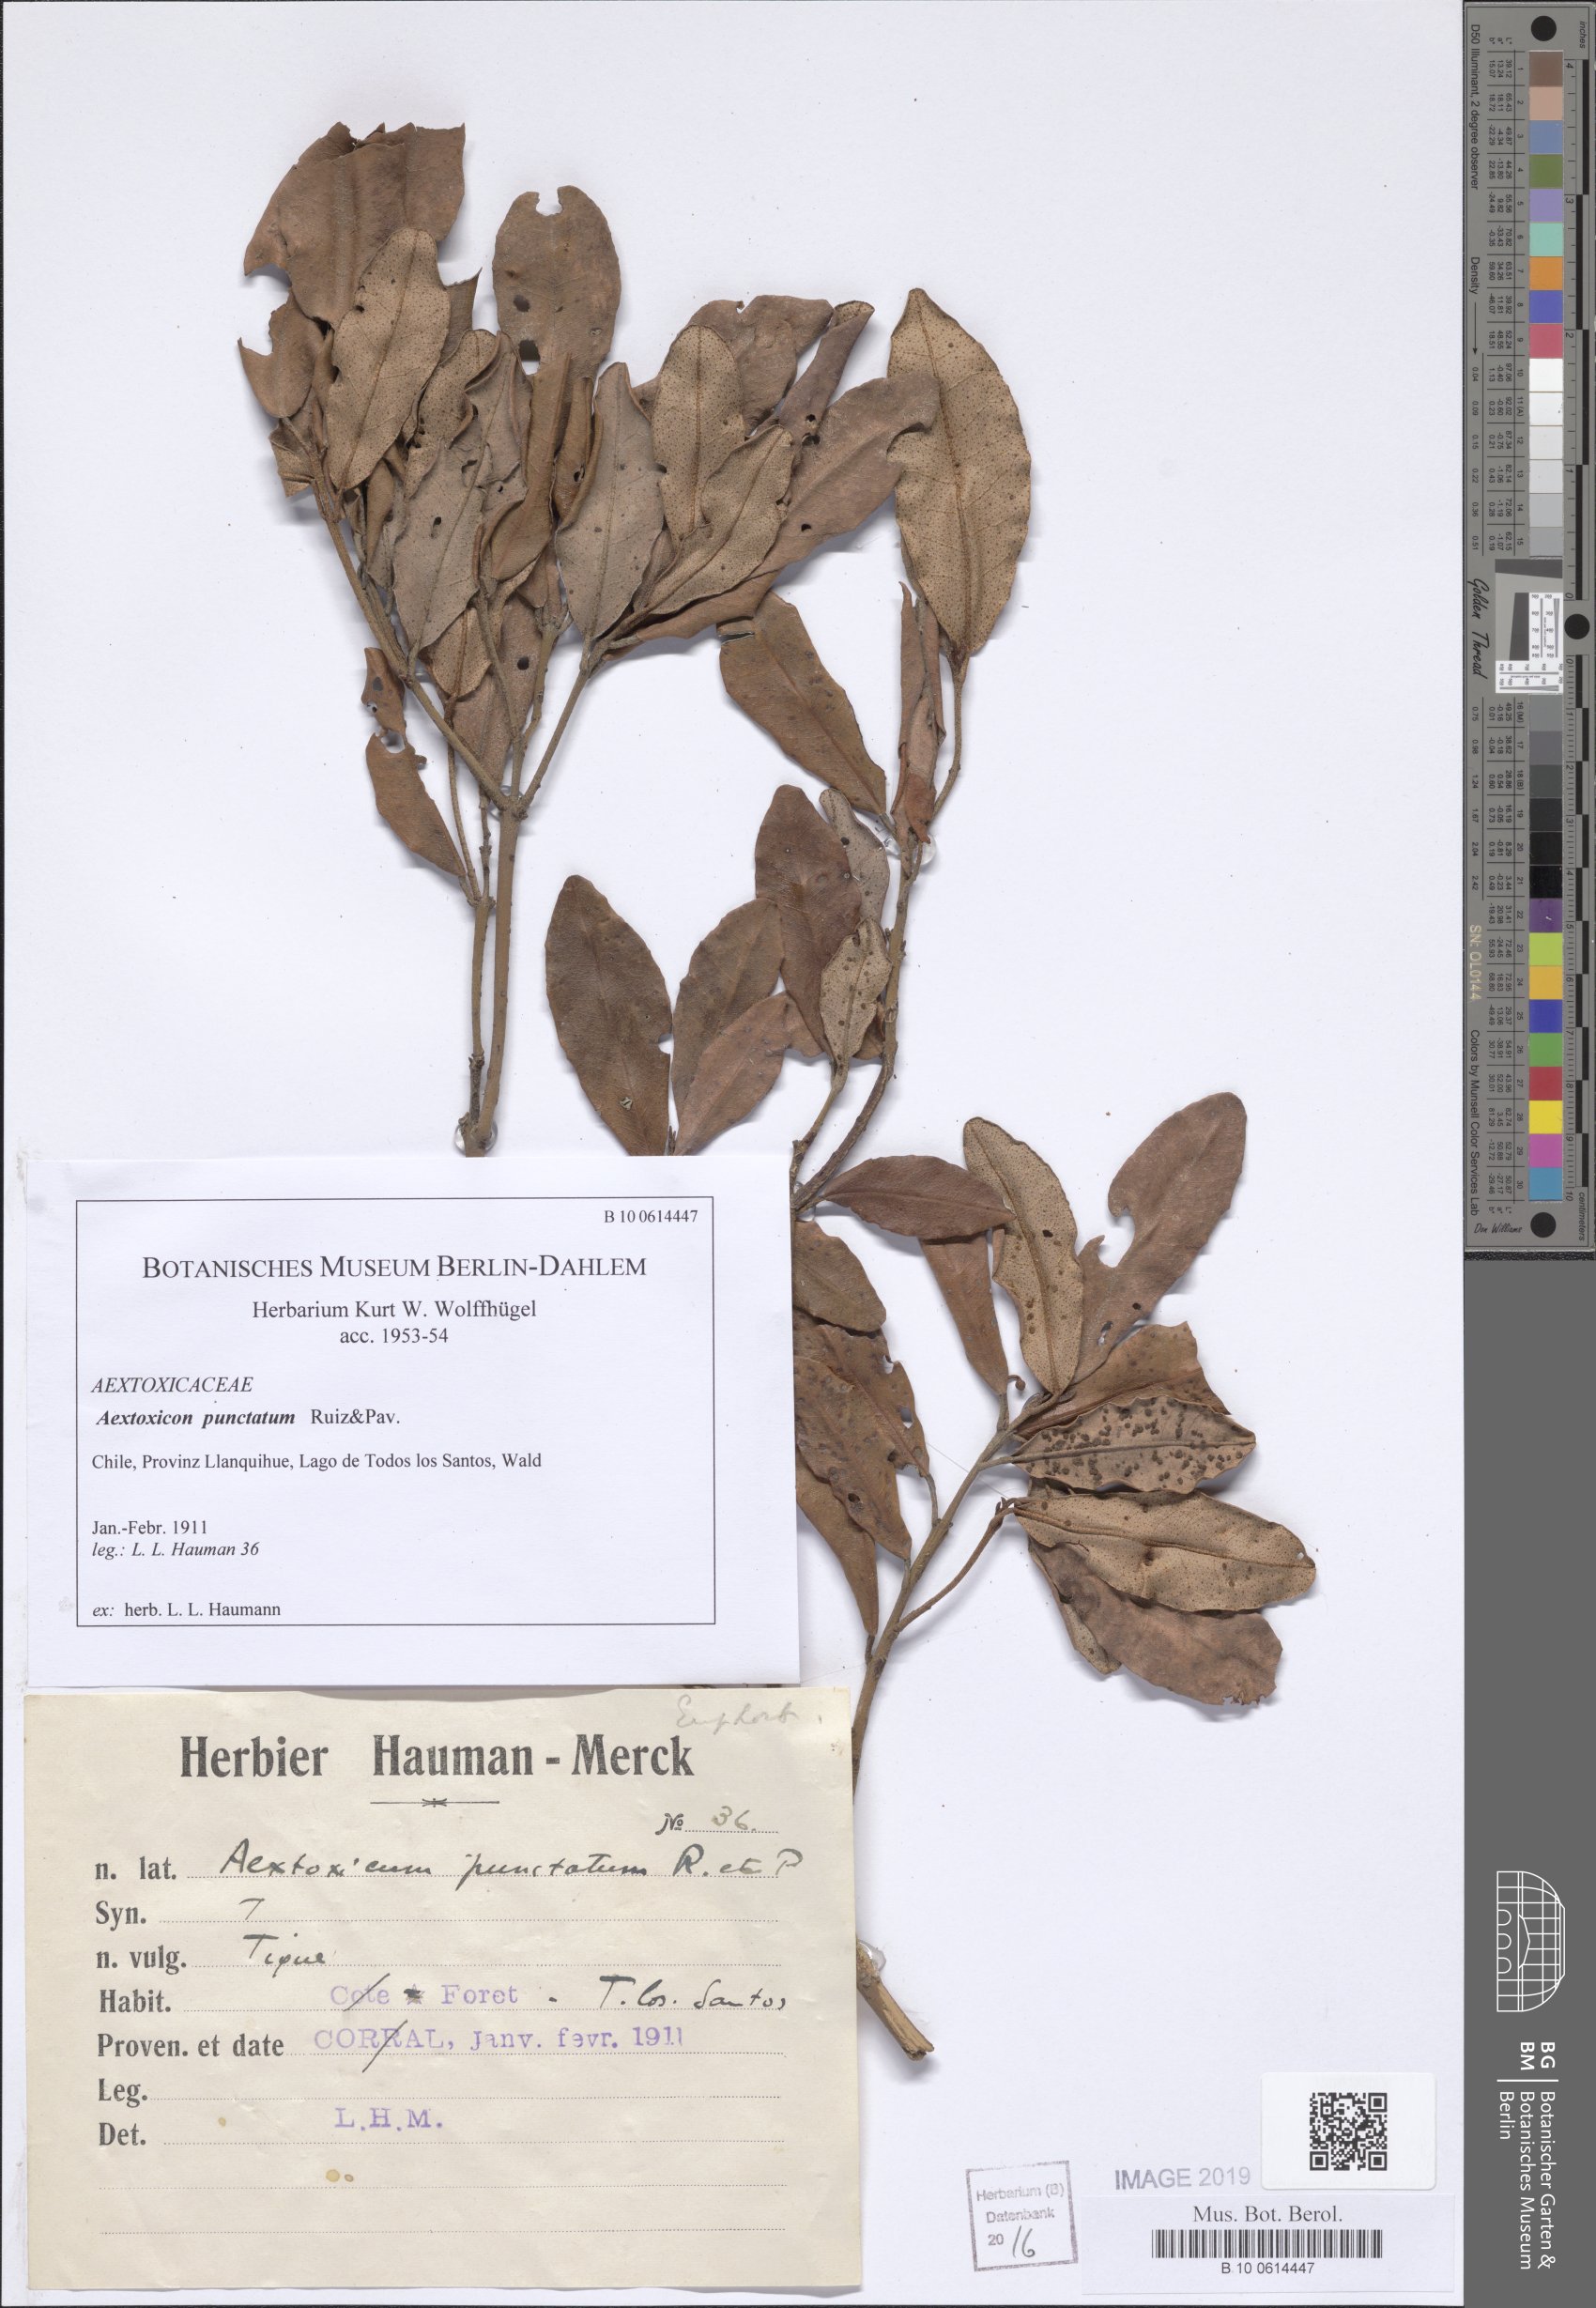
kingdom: Plantae
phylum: Tracheophyta
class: Magnoliopsida
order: Berberidopsidales
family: Aextoxicaceae
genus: Aextoxicon
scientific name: Aextoxicon punctatum
